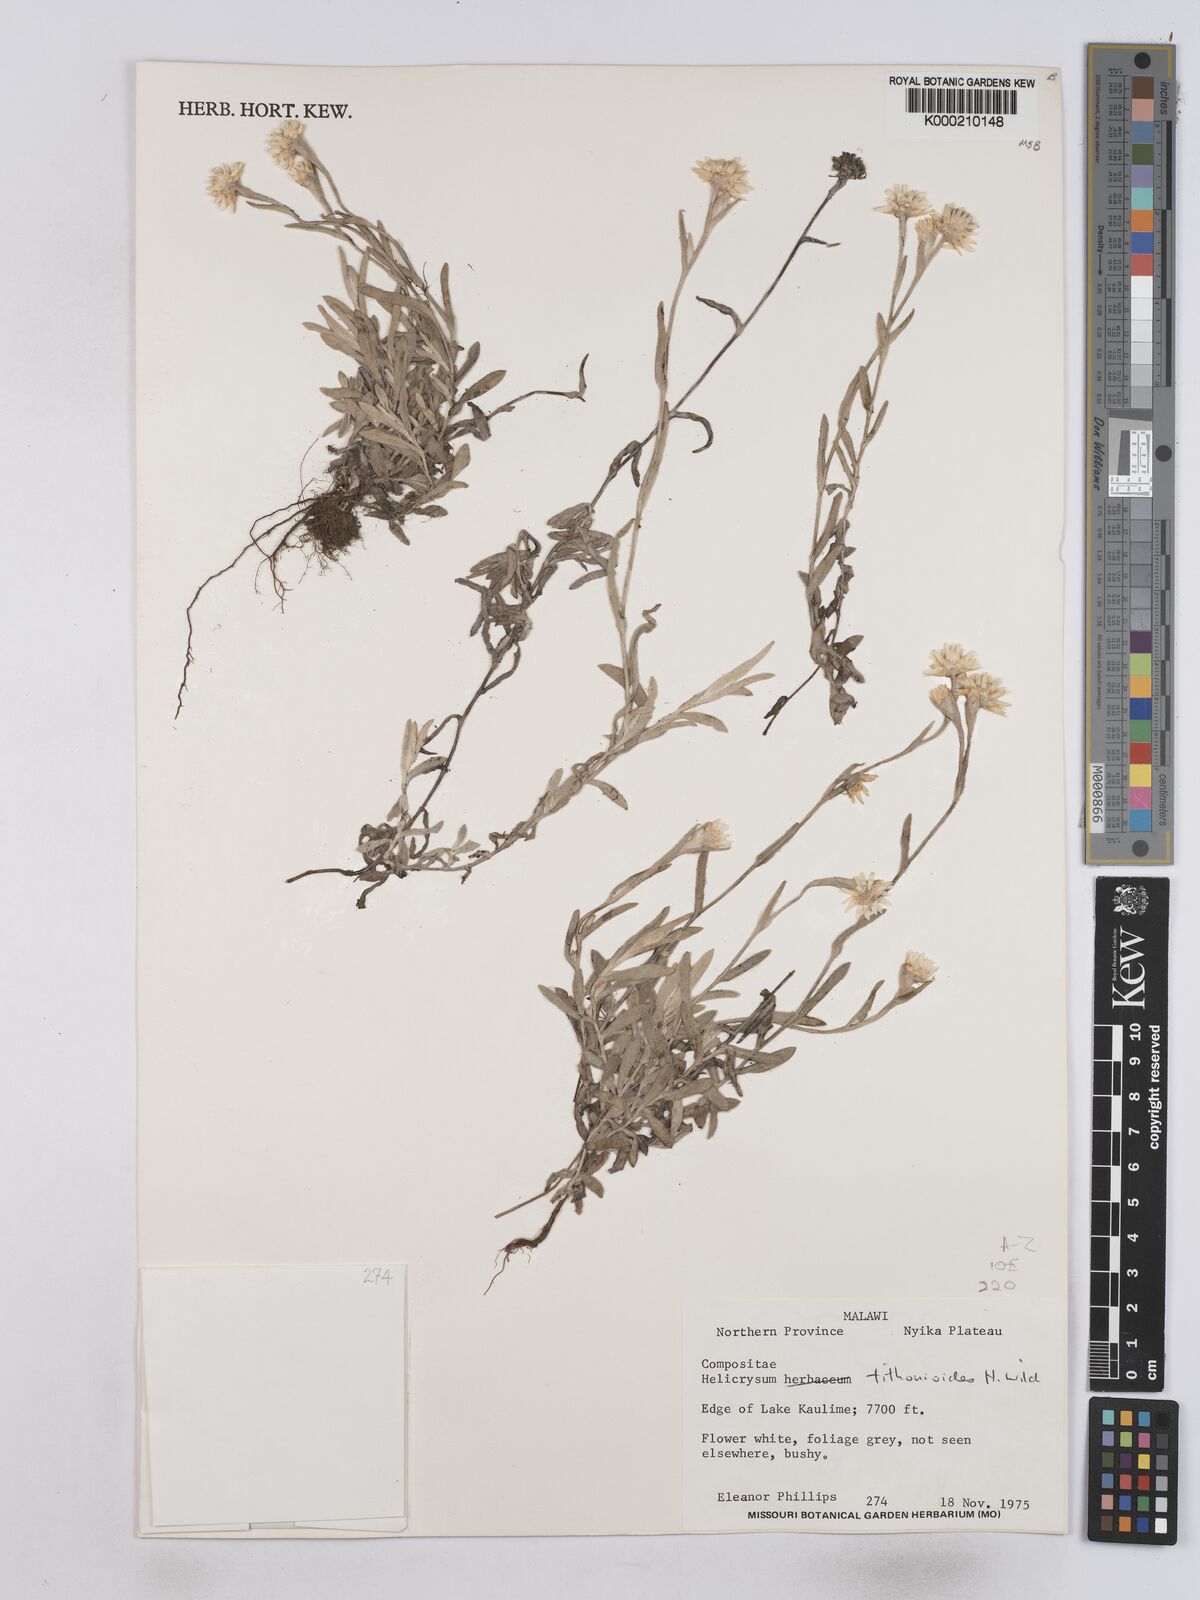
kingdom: Plantae
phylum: Tracheophyta
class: Magnoliopsida
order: Asterales
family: Asteraceae
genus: Helichrysum
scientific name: Helichrysum tithonioides
